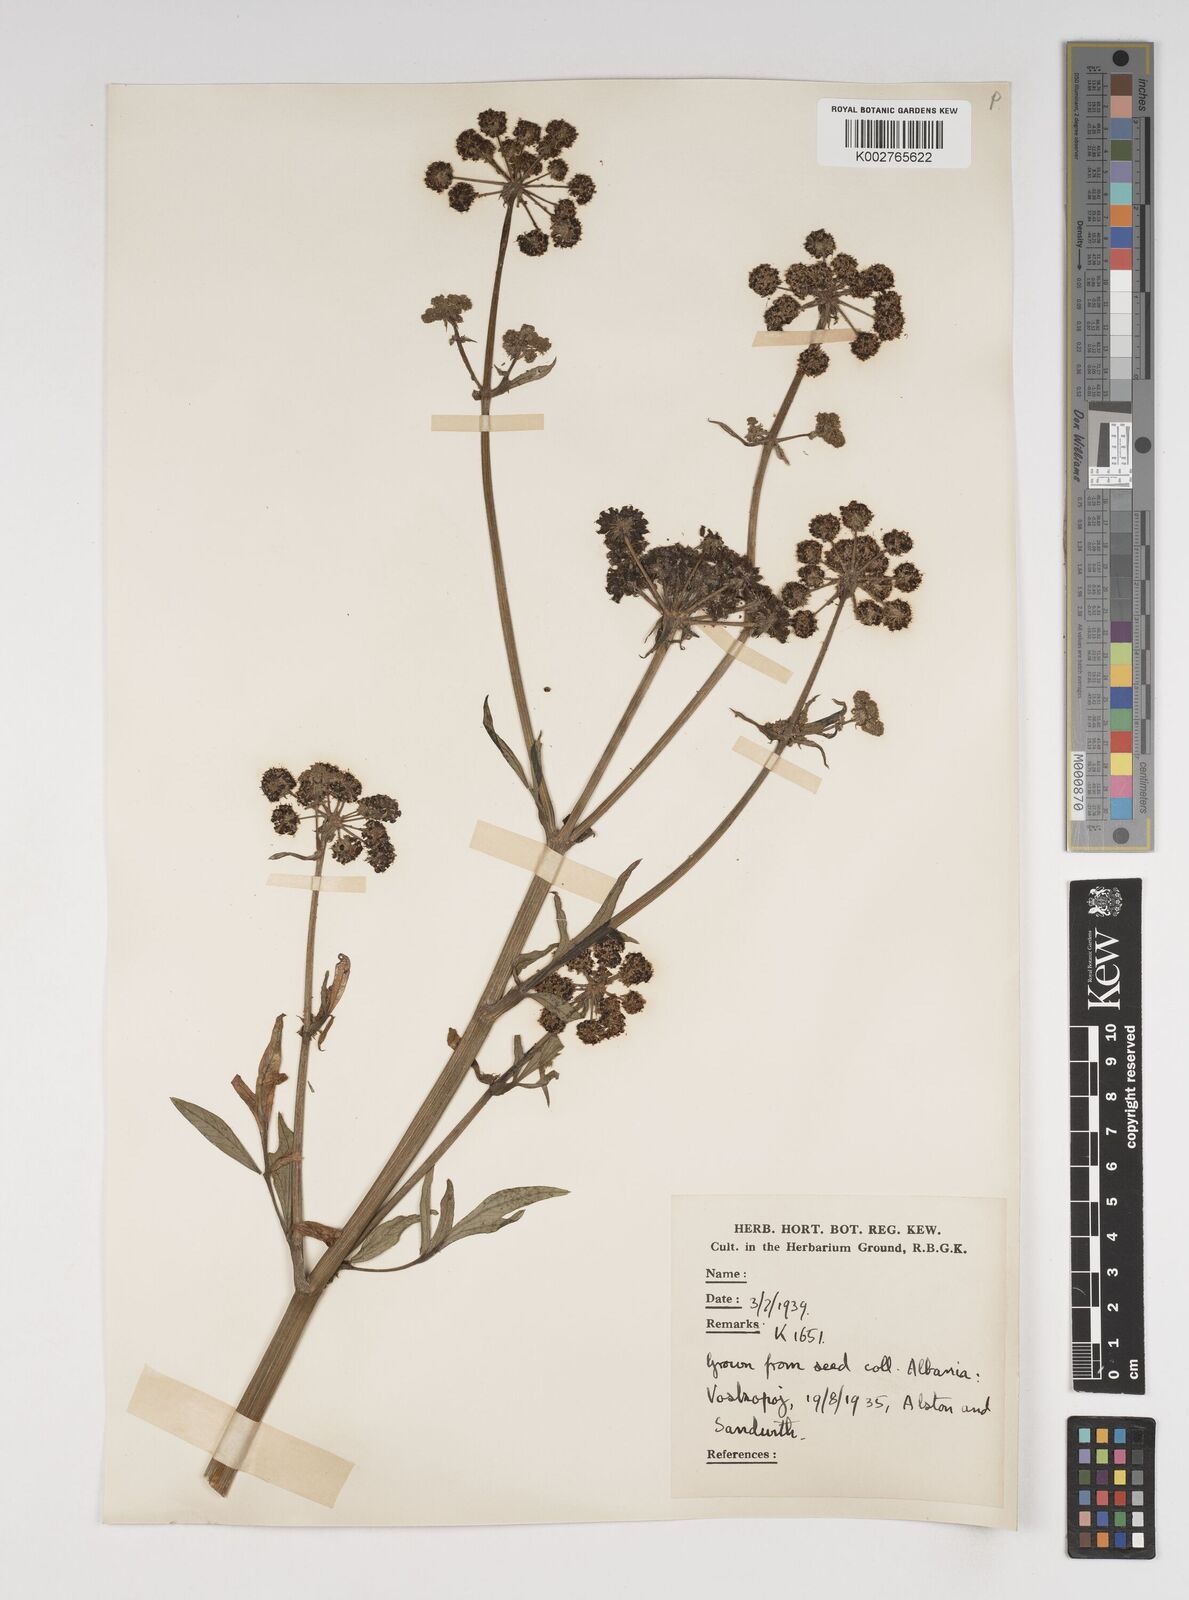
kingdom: Plantae
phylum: Tracheophyta
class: Magnoliopsida
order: Apiales
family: Apiaceae
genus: Levisticum
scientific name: Levisticum officinale
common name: Lovage
